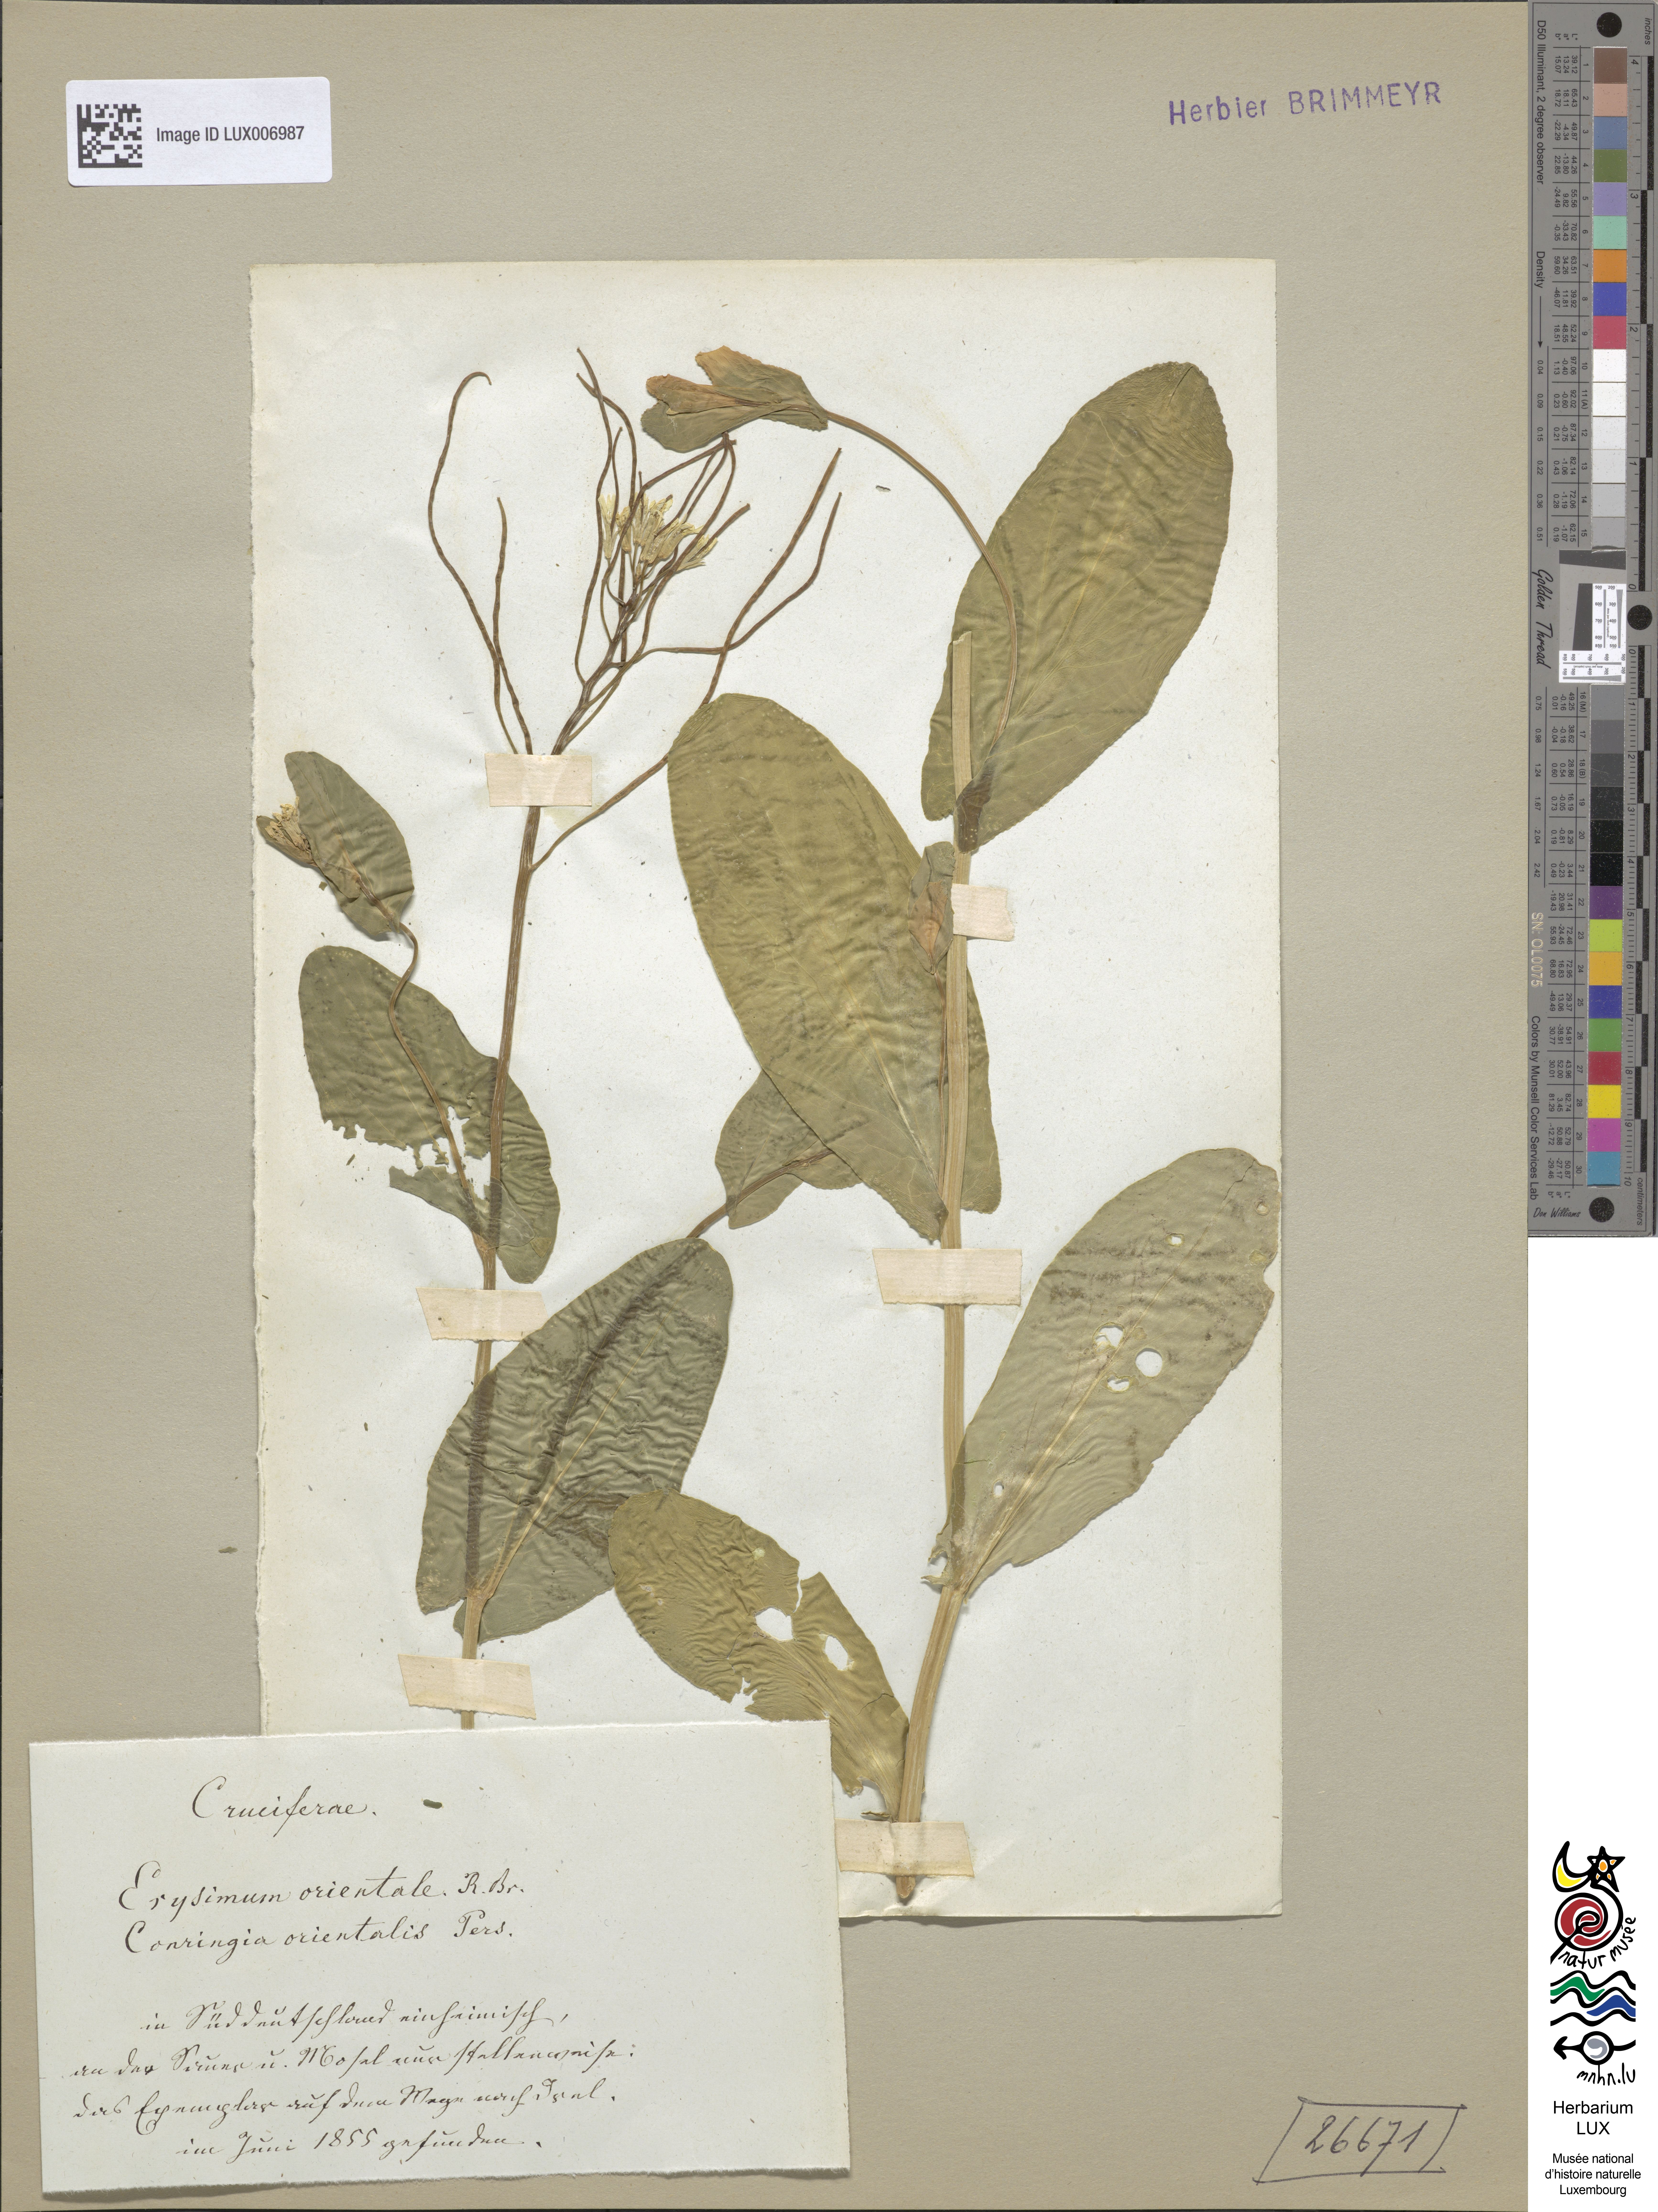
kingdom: Plantae
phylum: Tracheophyta
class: Magnoliopsida
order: Brassicales
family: Brassicaceae
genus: Conringia
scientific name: Conringia orientalis
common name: Hare's ear mustard
